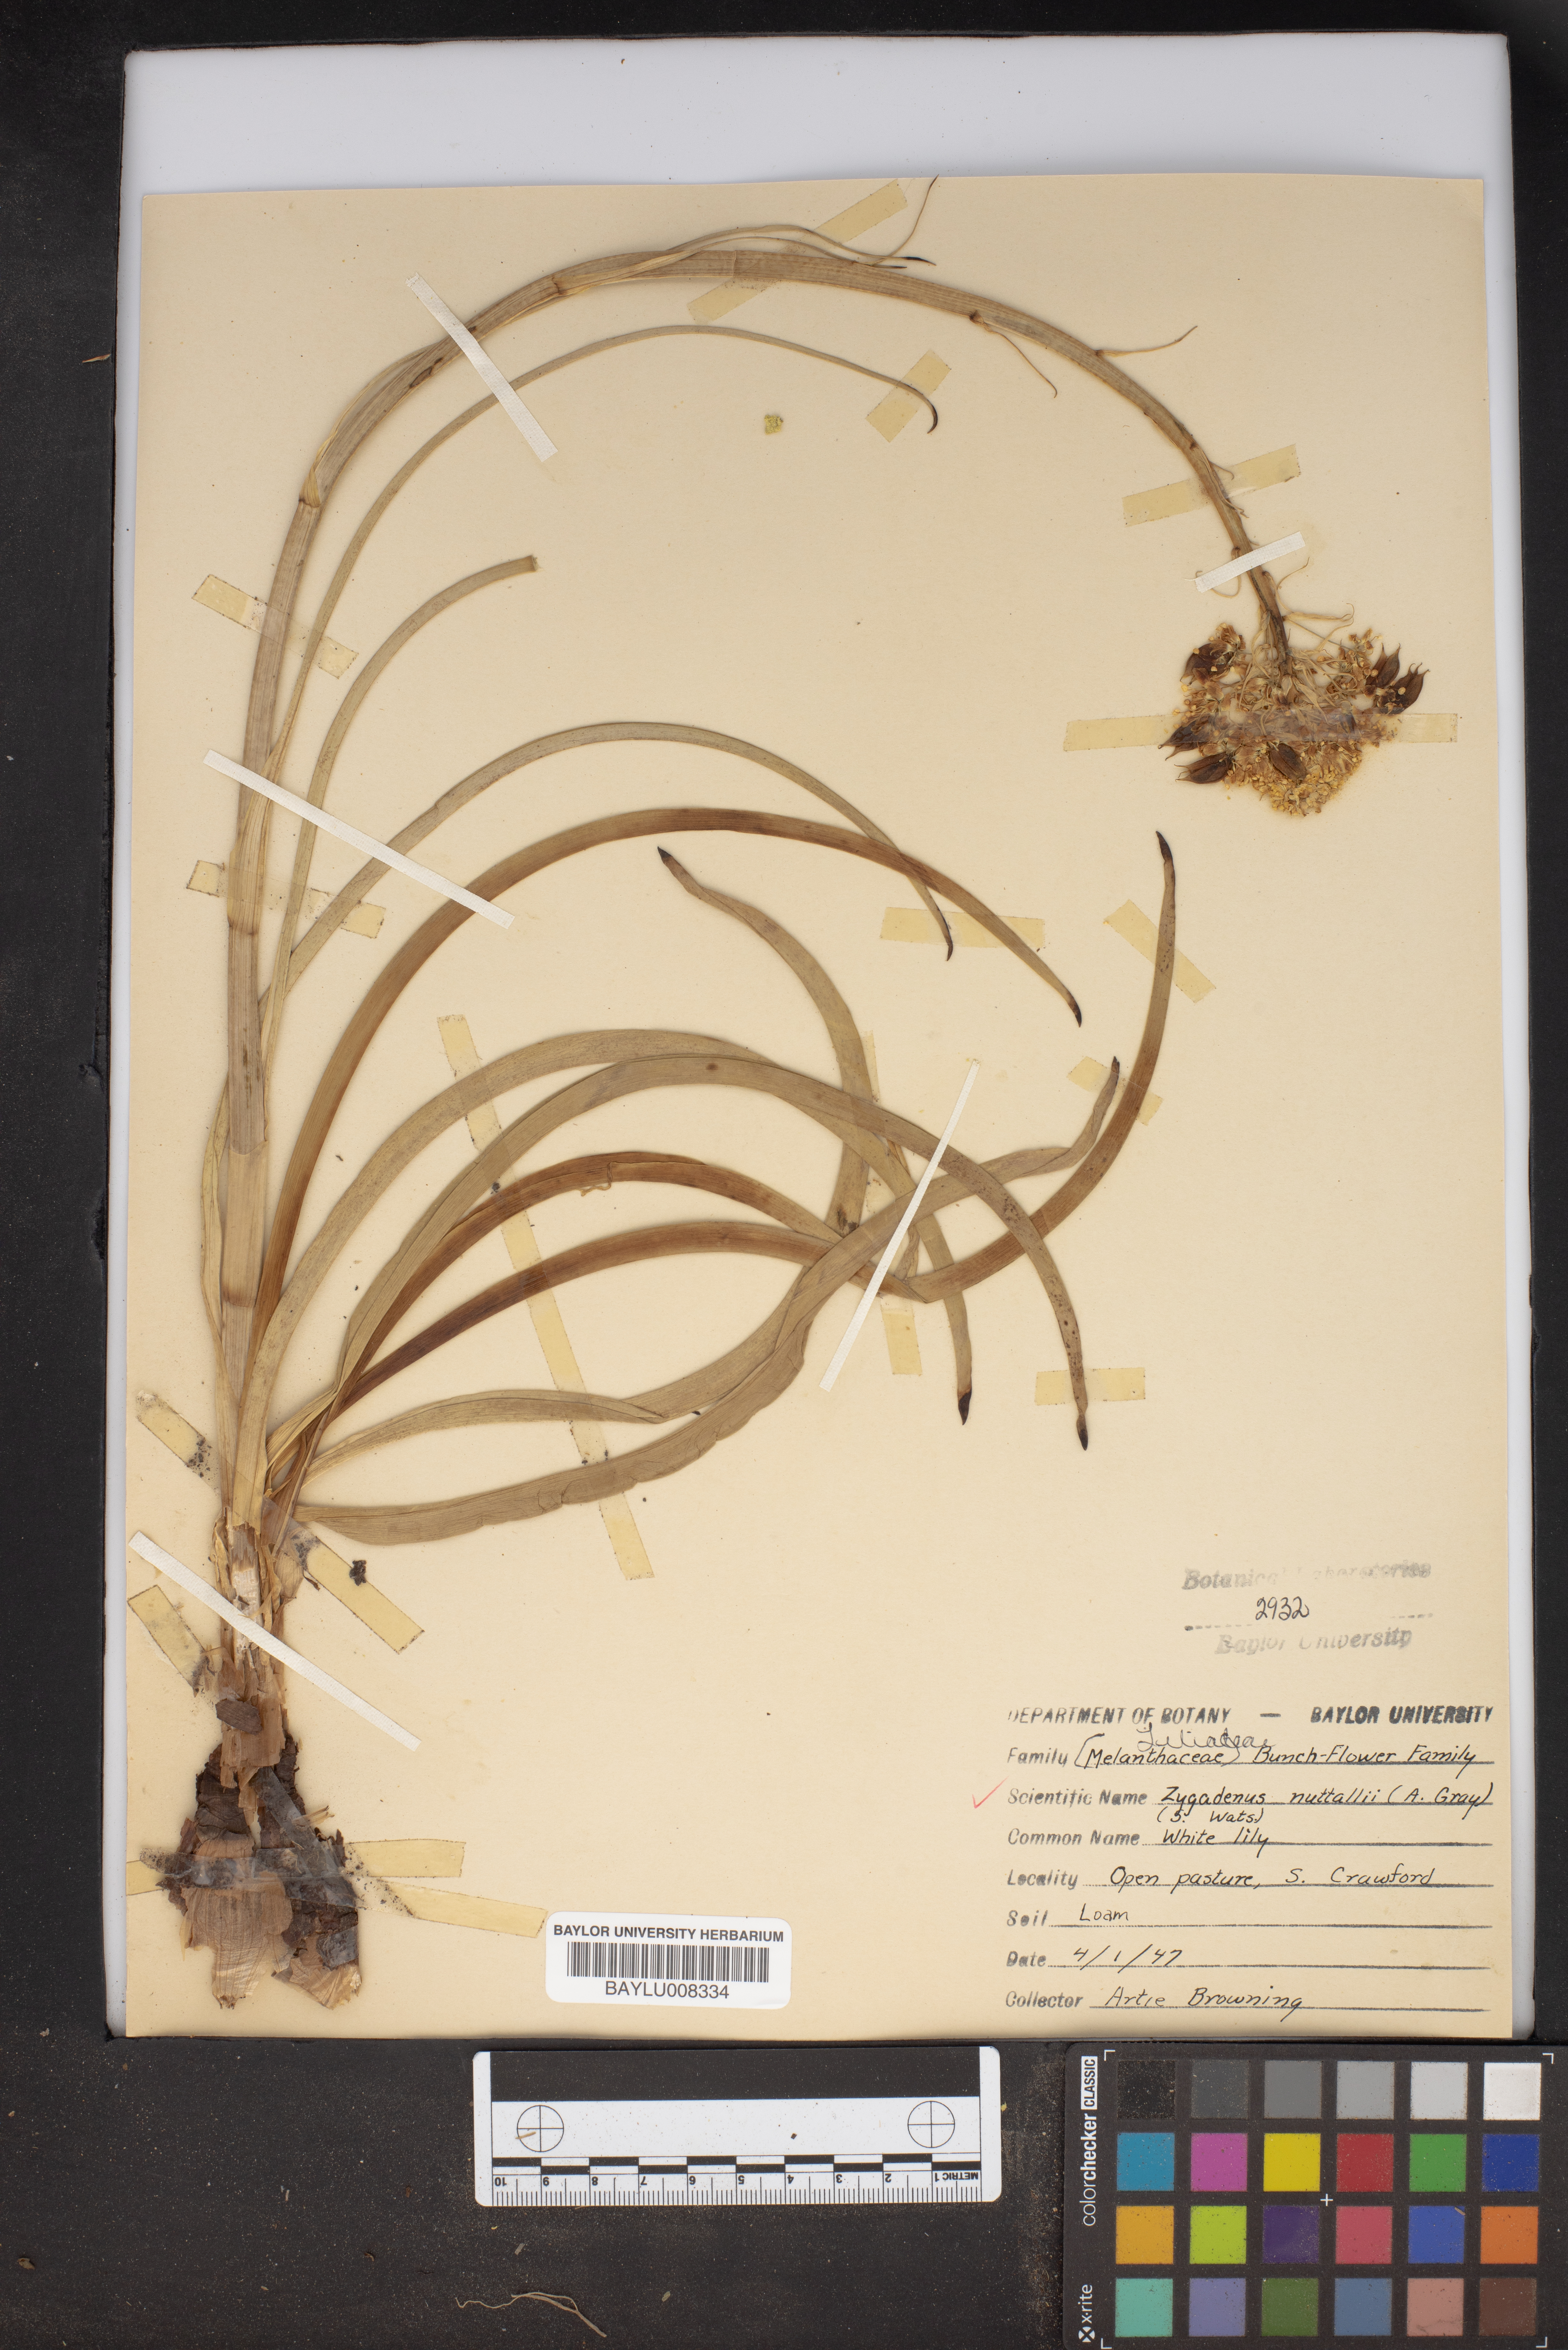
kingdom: Plantae
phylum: Tracheophyta
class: Liliopsida
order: Liliales
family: Melanthiaceae
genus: Toxicoscordion
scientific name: Toxicoscordion nuttallii
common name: Poison sego
